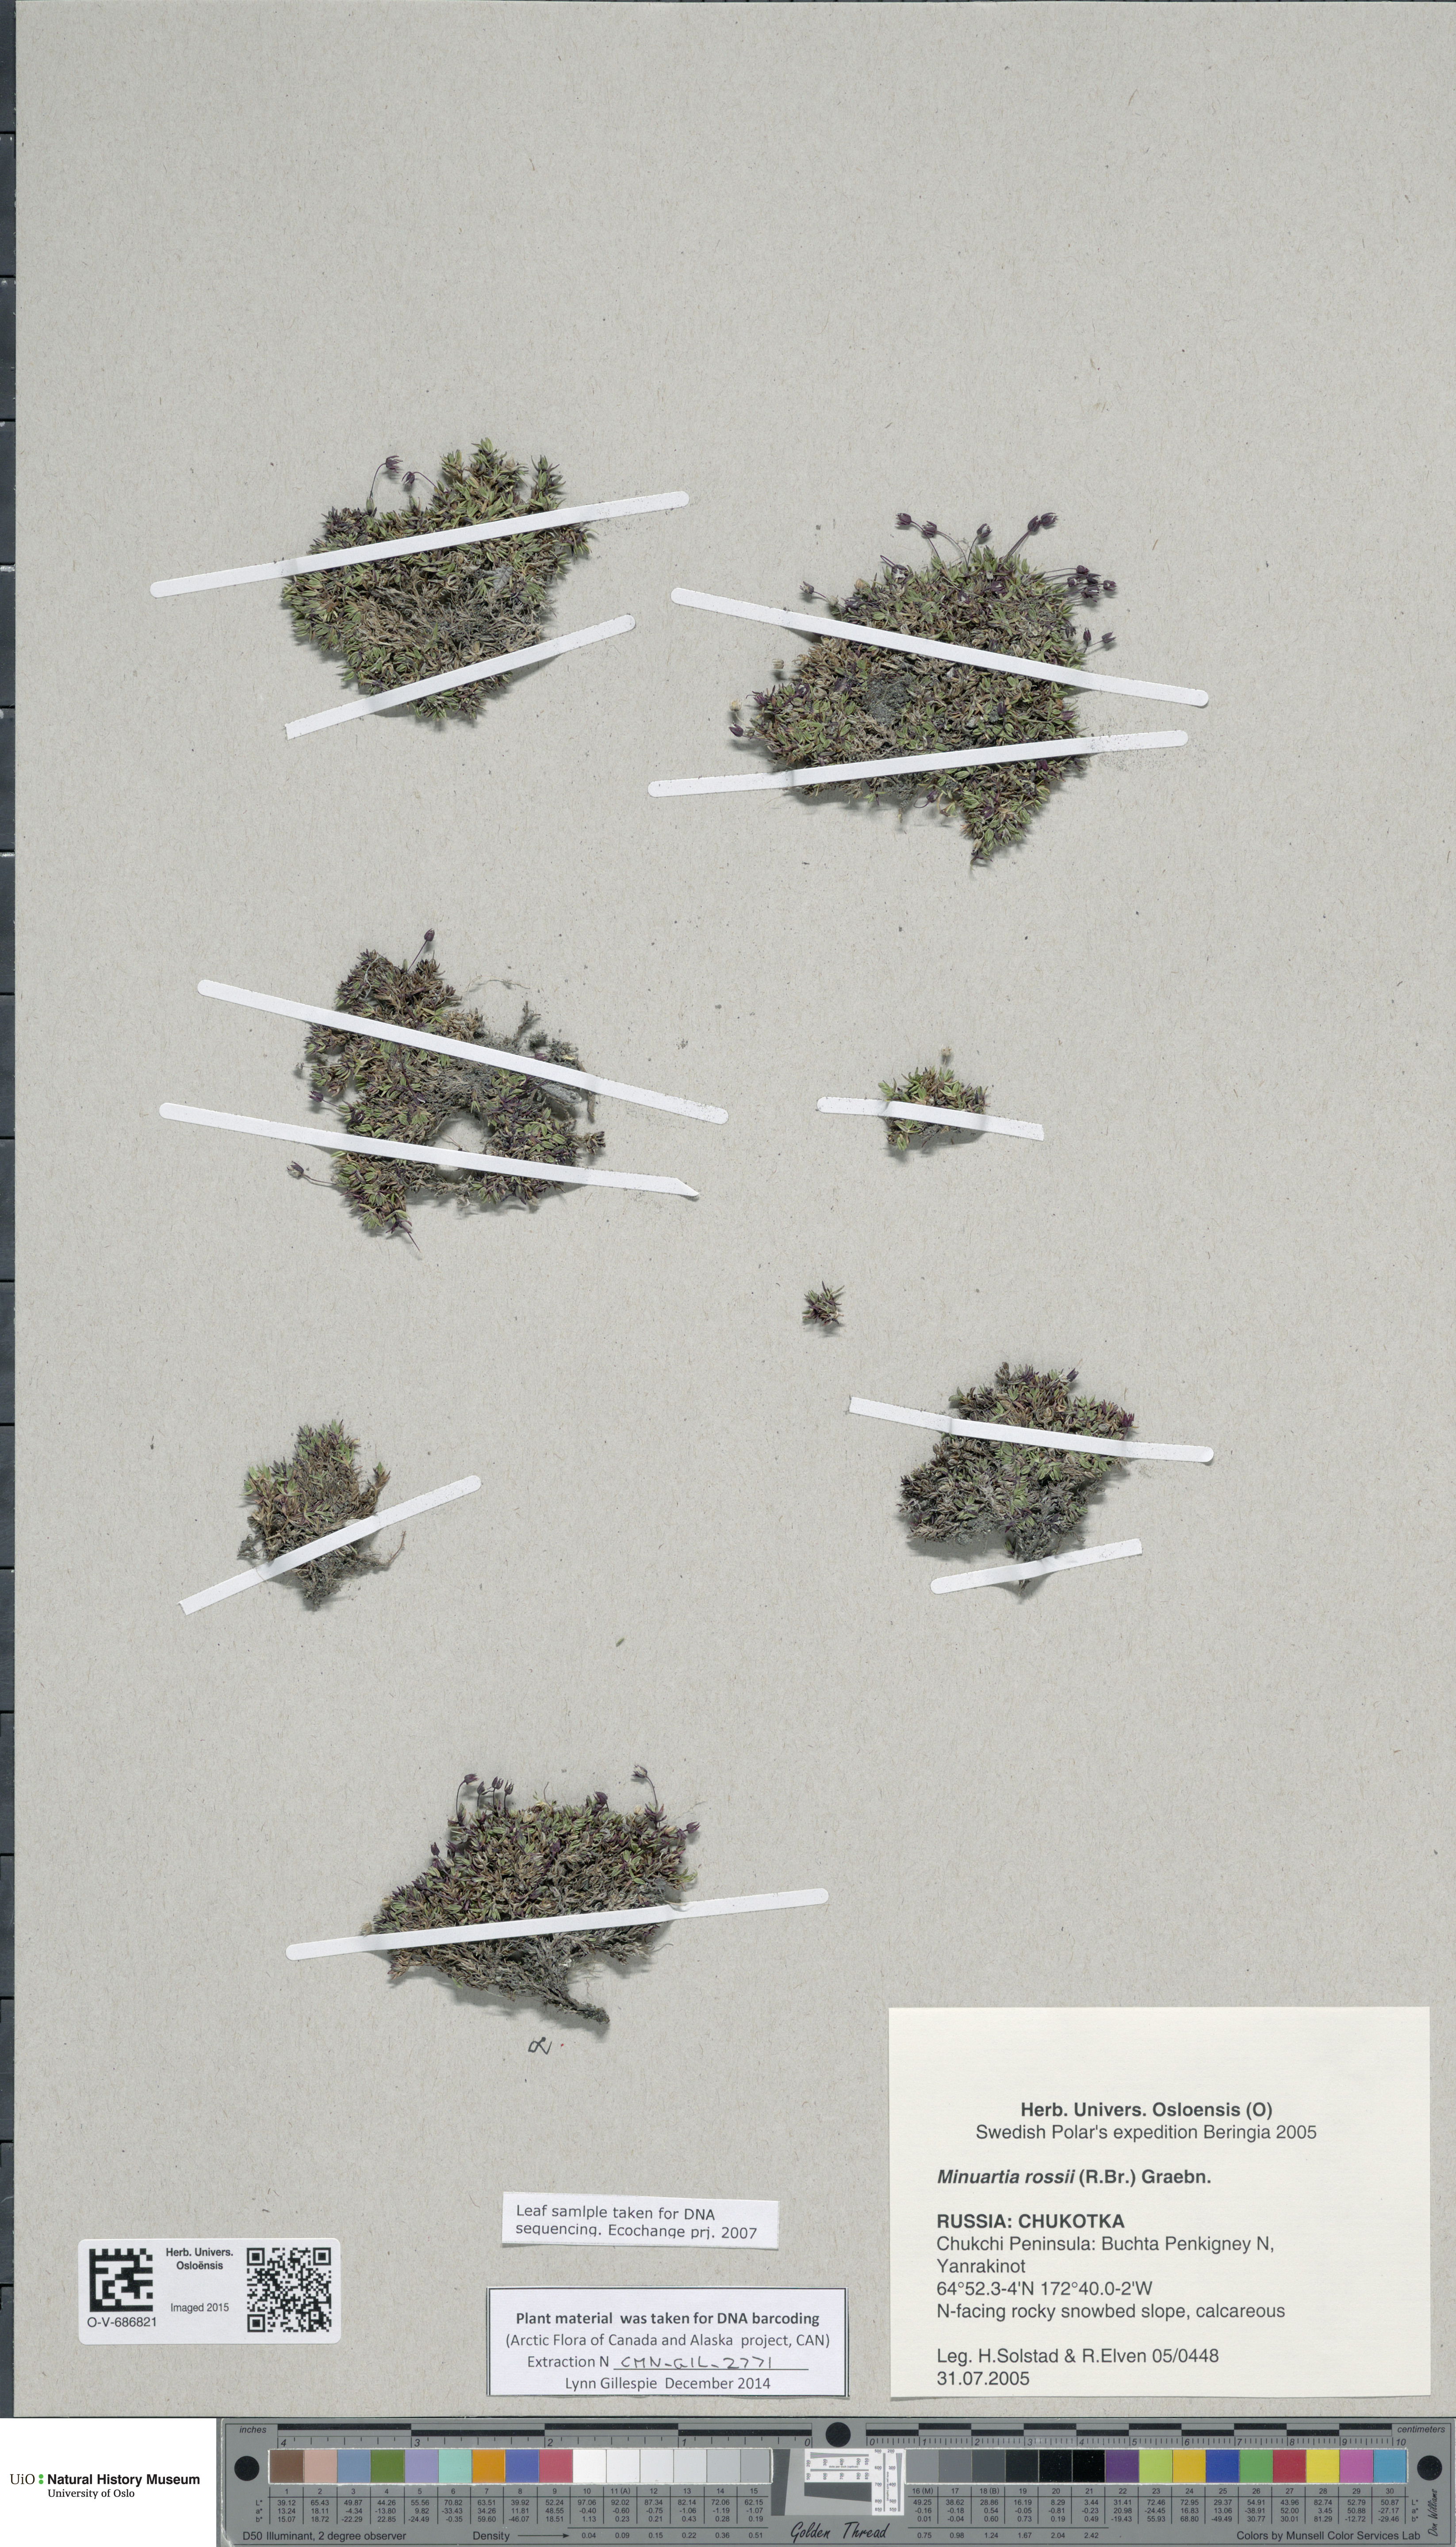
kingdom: Plantae
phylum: Tracheophyta
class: Magnoliopsida
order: Caryophyllales
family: Caryophyllaceae
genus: Sabulina
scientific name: Sabulina rosei
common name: Ross' sandwort
